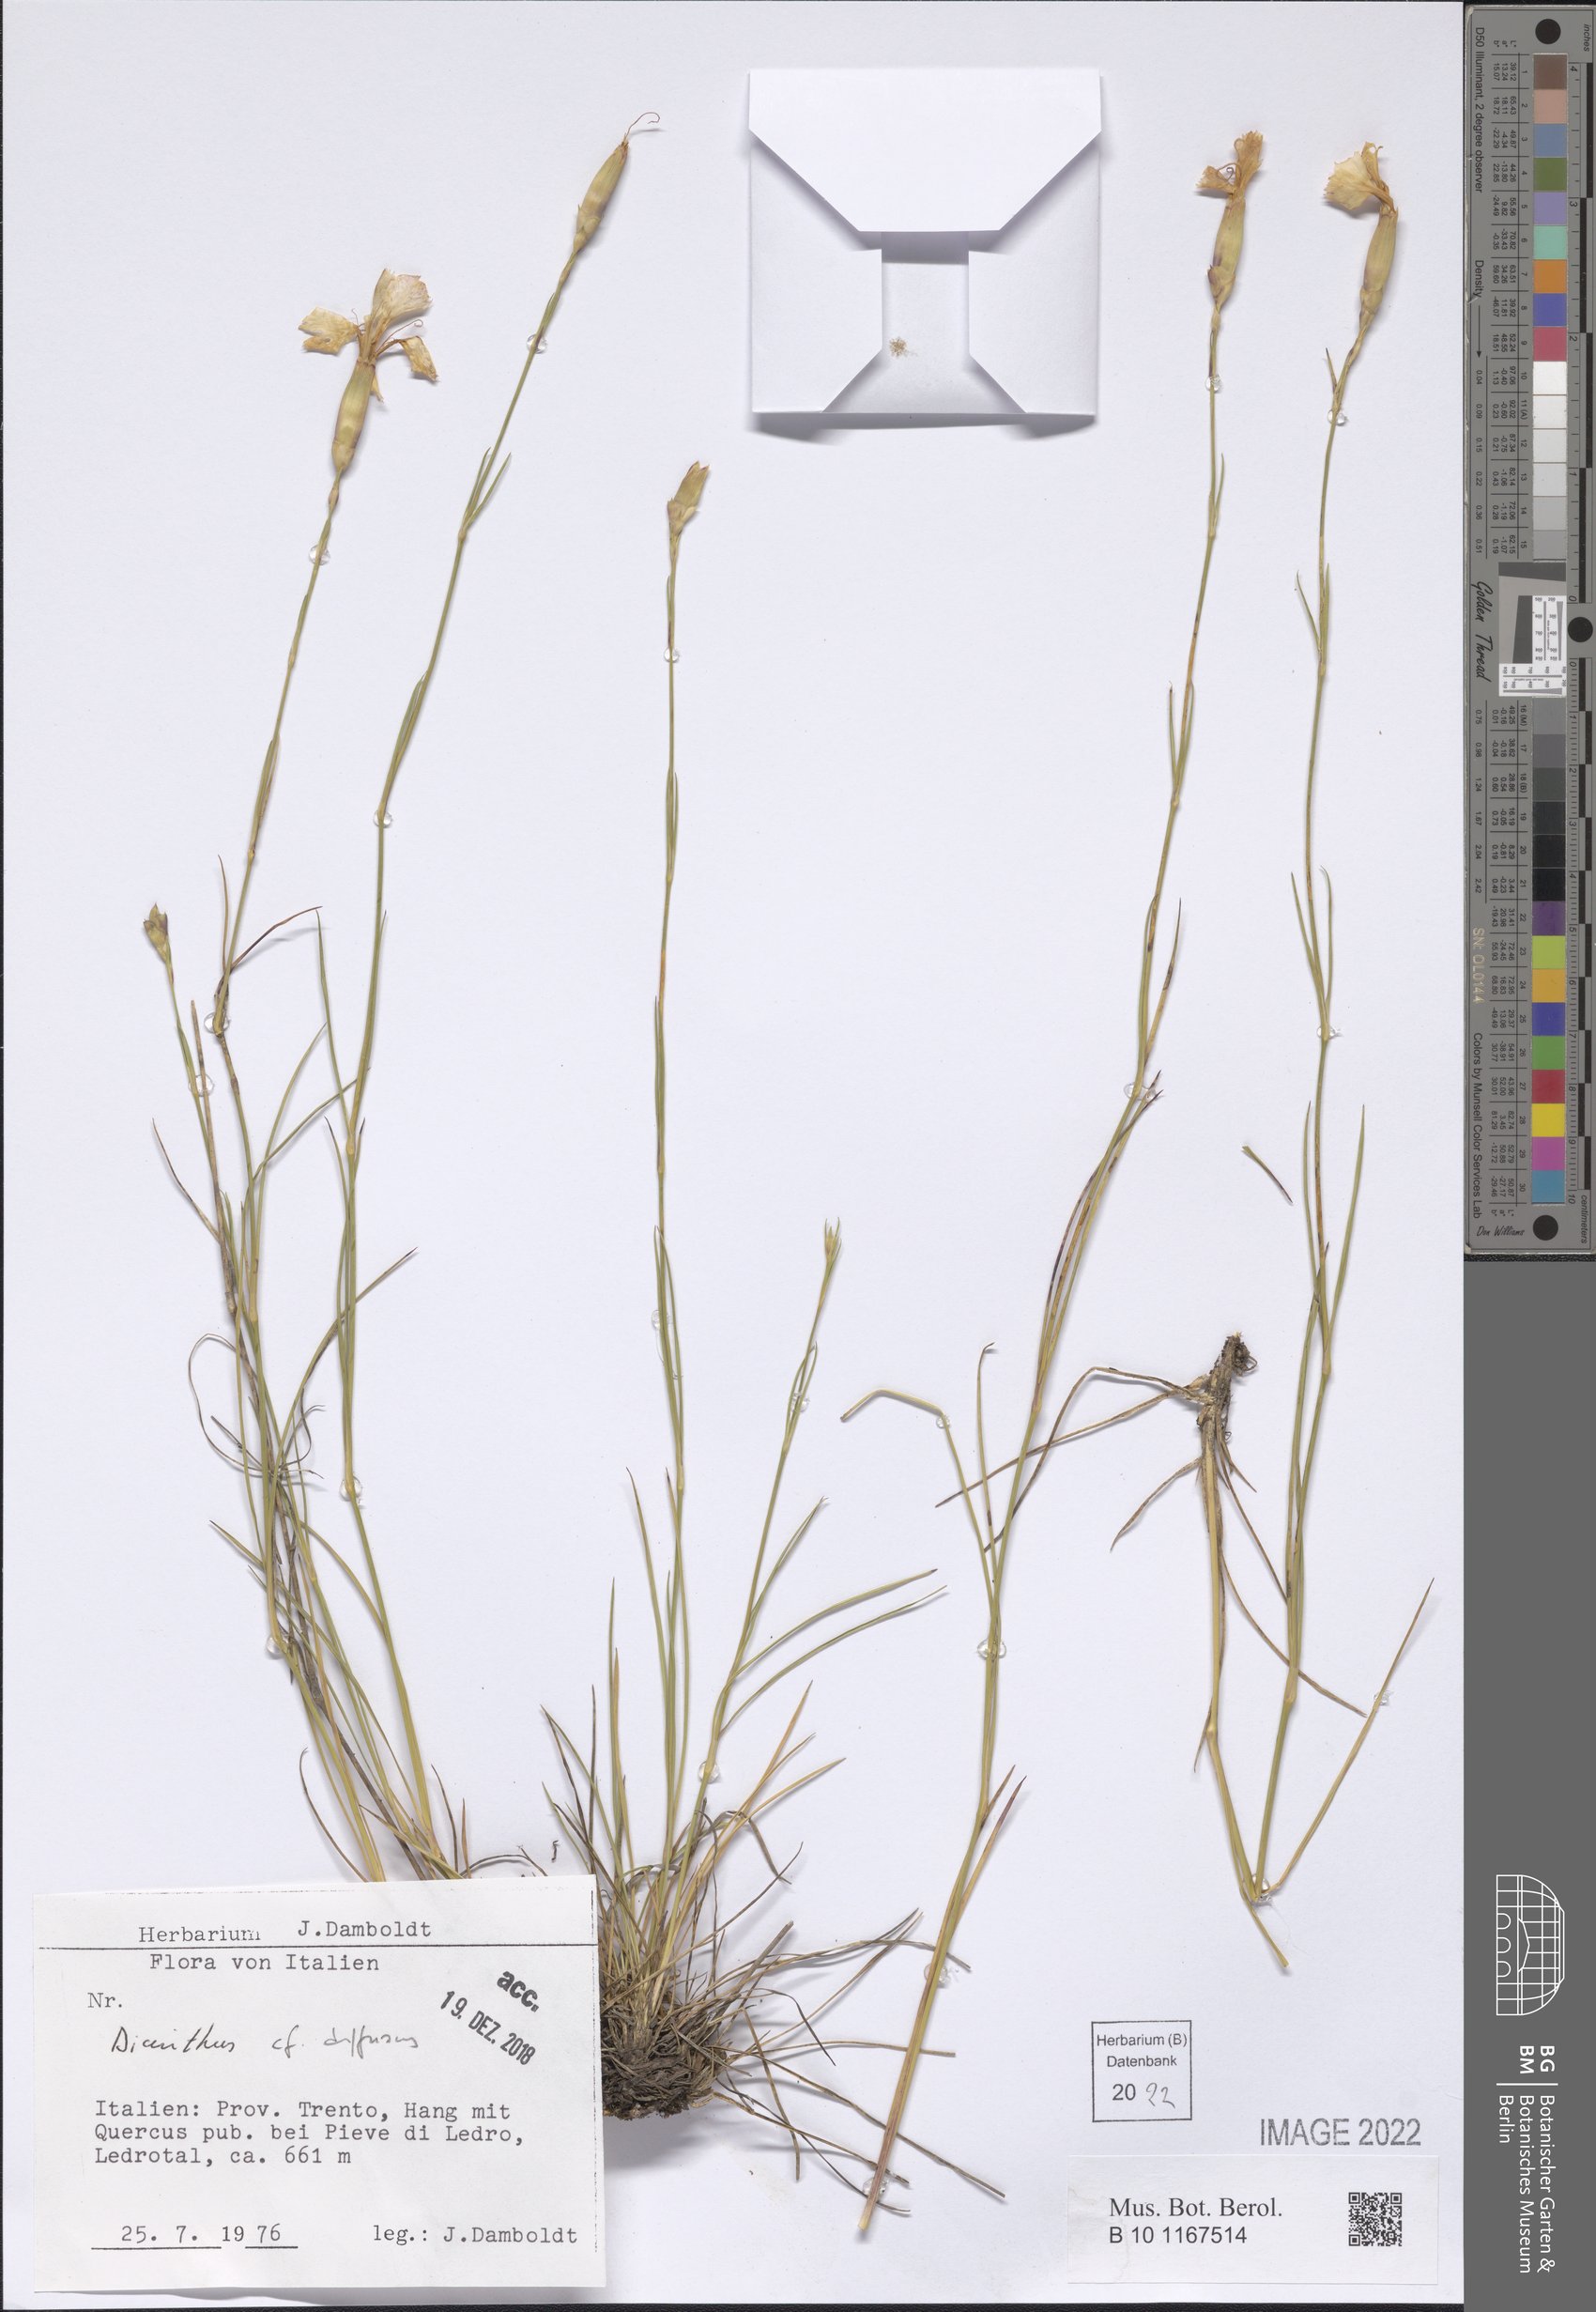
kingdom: Plantae
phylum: Tracheophyta
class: Magnoliopsida
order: Caryophyllales
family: Caryophyllaceae
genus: Dianthus
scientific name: Dianthus diffusus
